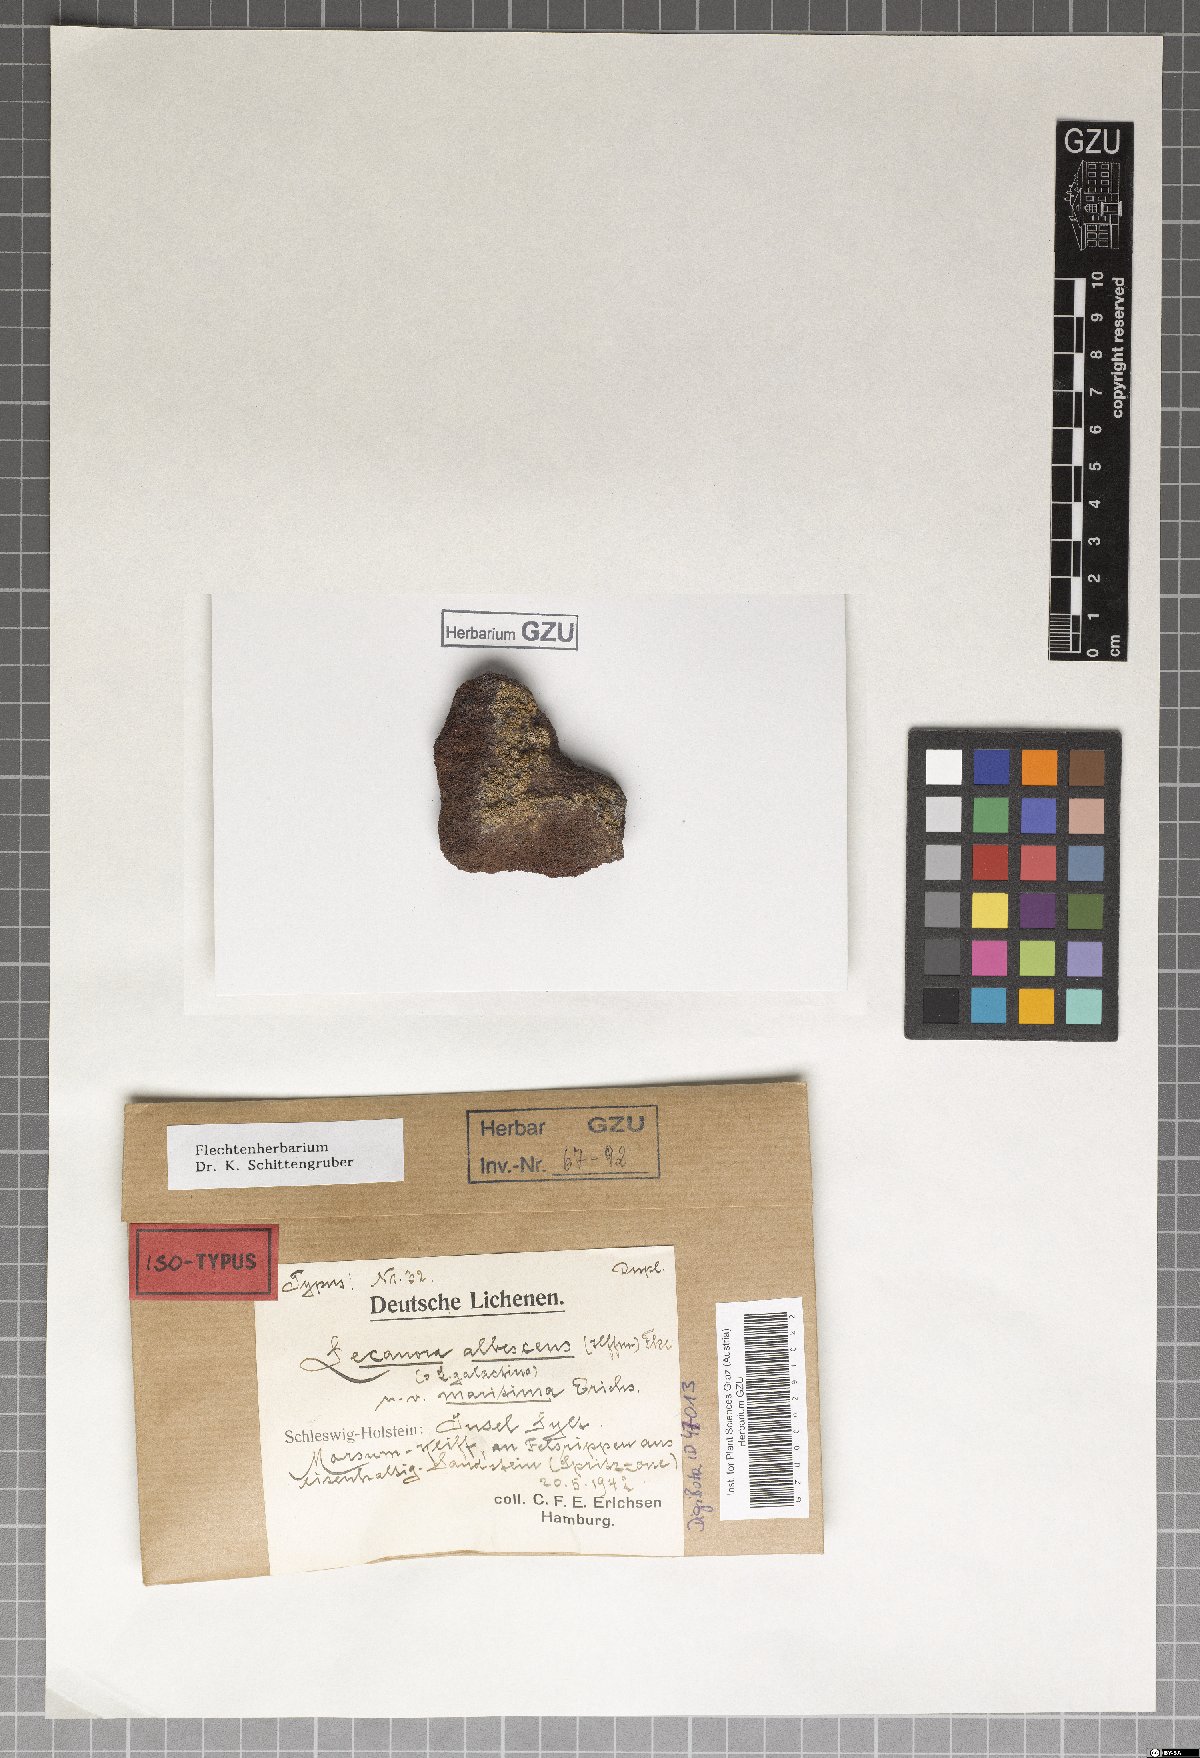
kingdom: Fungi
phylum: Ascomycota
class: Lecanoromycetes
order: Lecanorales
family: Lecanoraceae
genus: Polyozosia
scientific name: Polyozosia albescens
